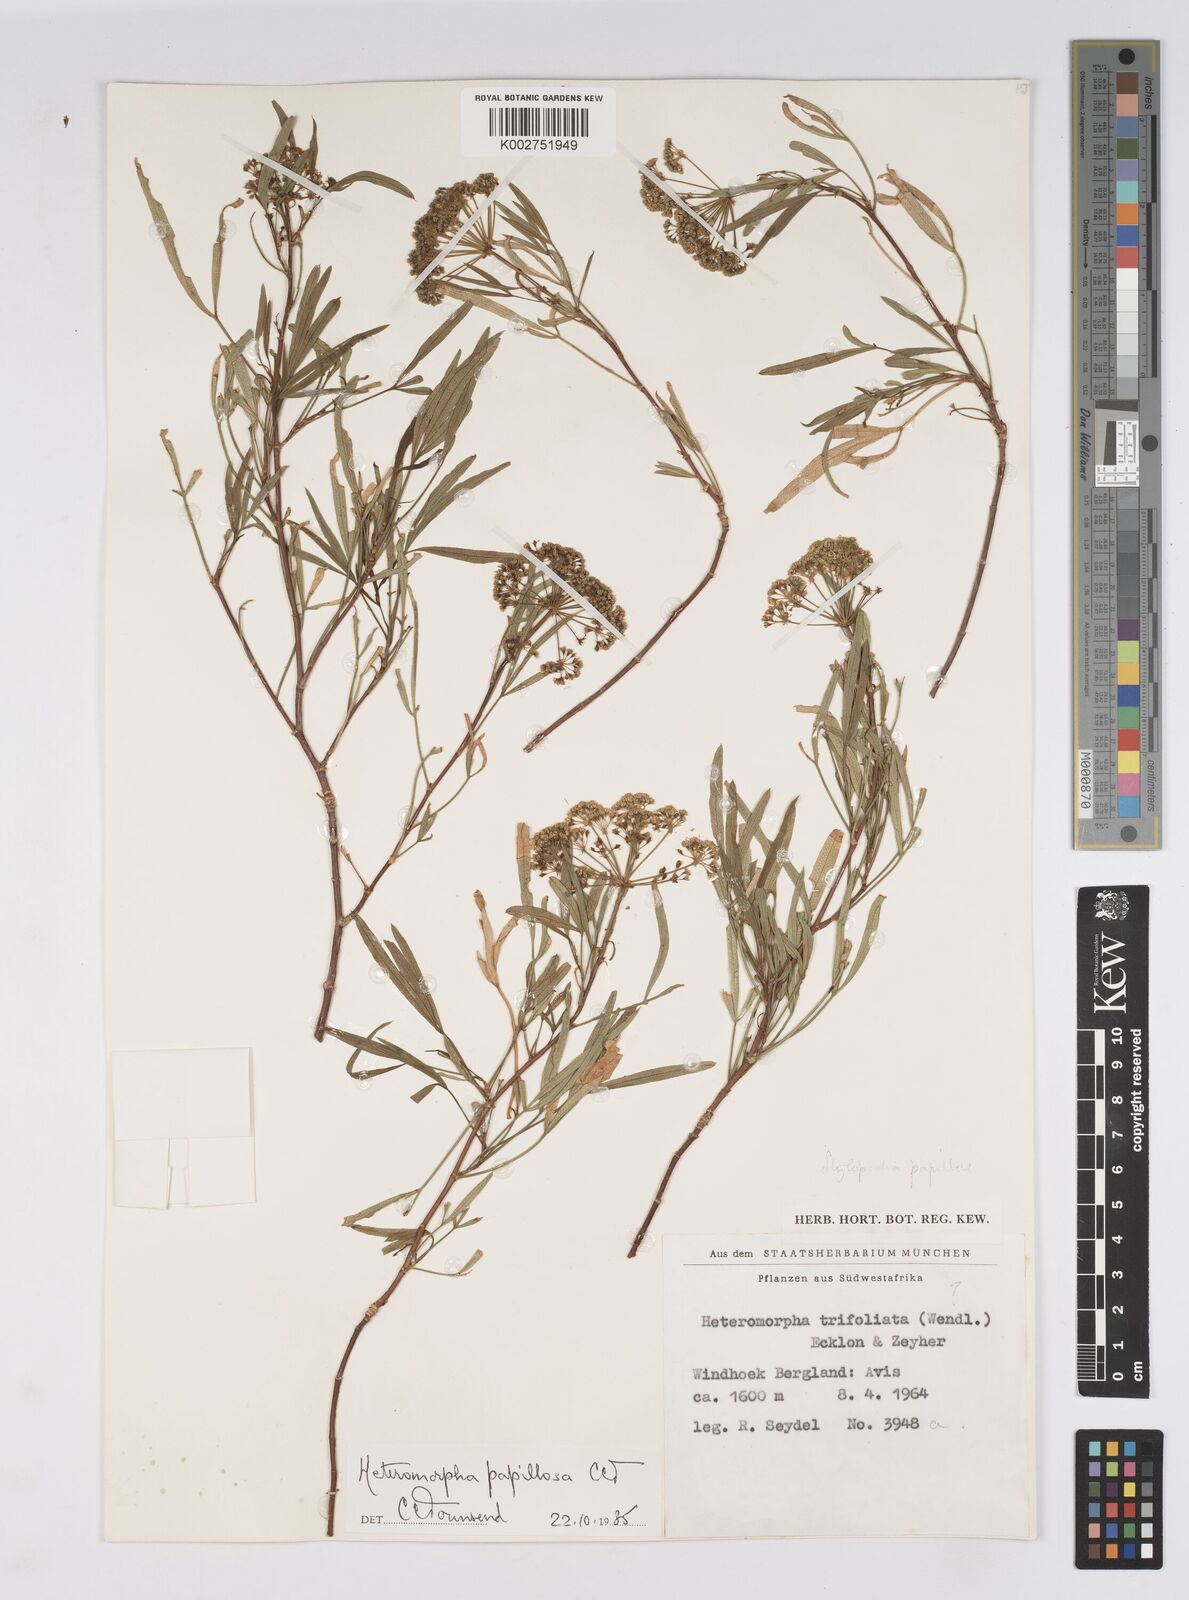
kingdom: Plantae
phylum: Tracheophyta
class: Magnoliopsida
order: Apiales
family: Apiaceae
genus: Heteromorpha
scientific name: Heteromorpha papillosa
